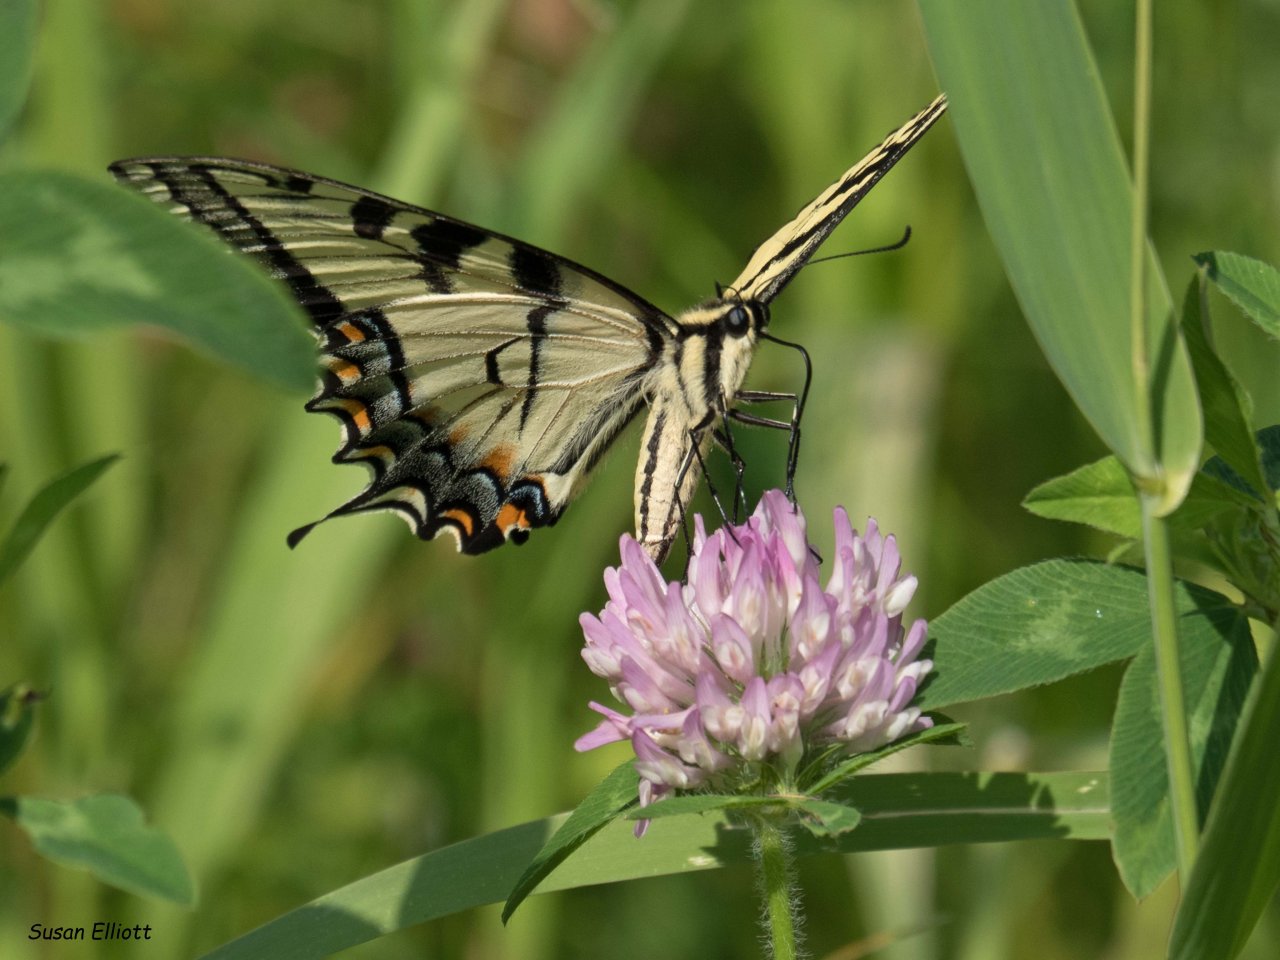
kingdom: Animalia
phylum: Arthropoda
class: Insecta
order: Lepidoptera
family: Papilionidae
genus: Pterourus
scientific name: Pterourus
